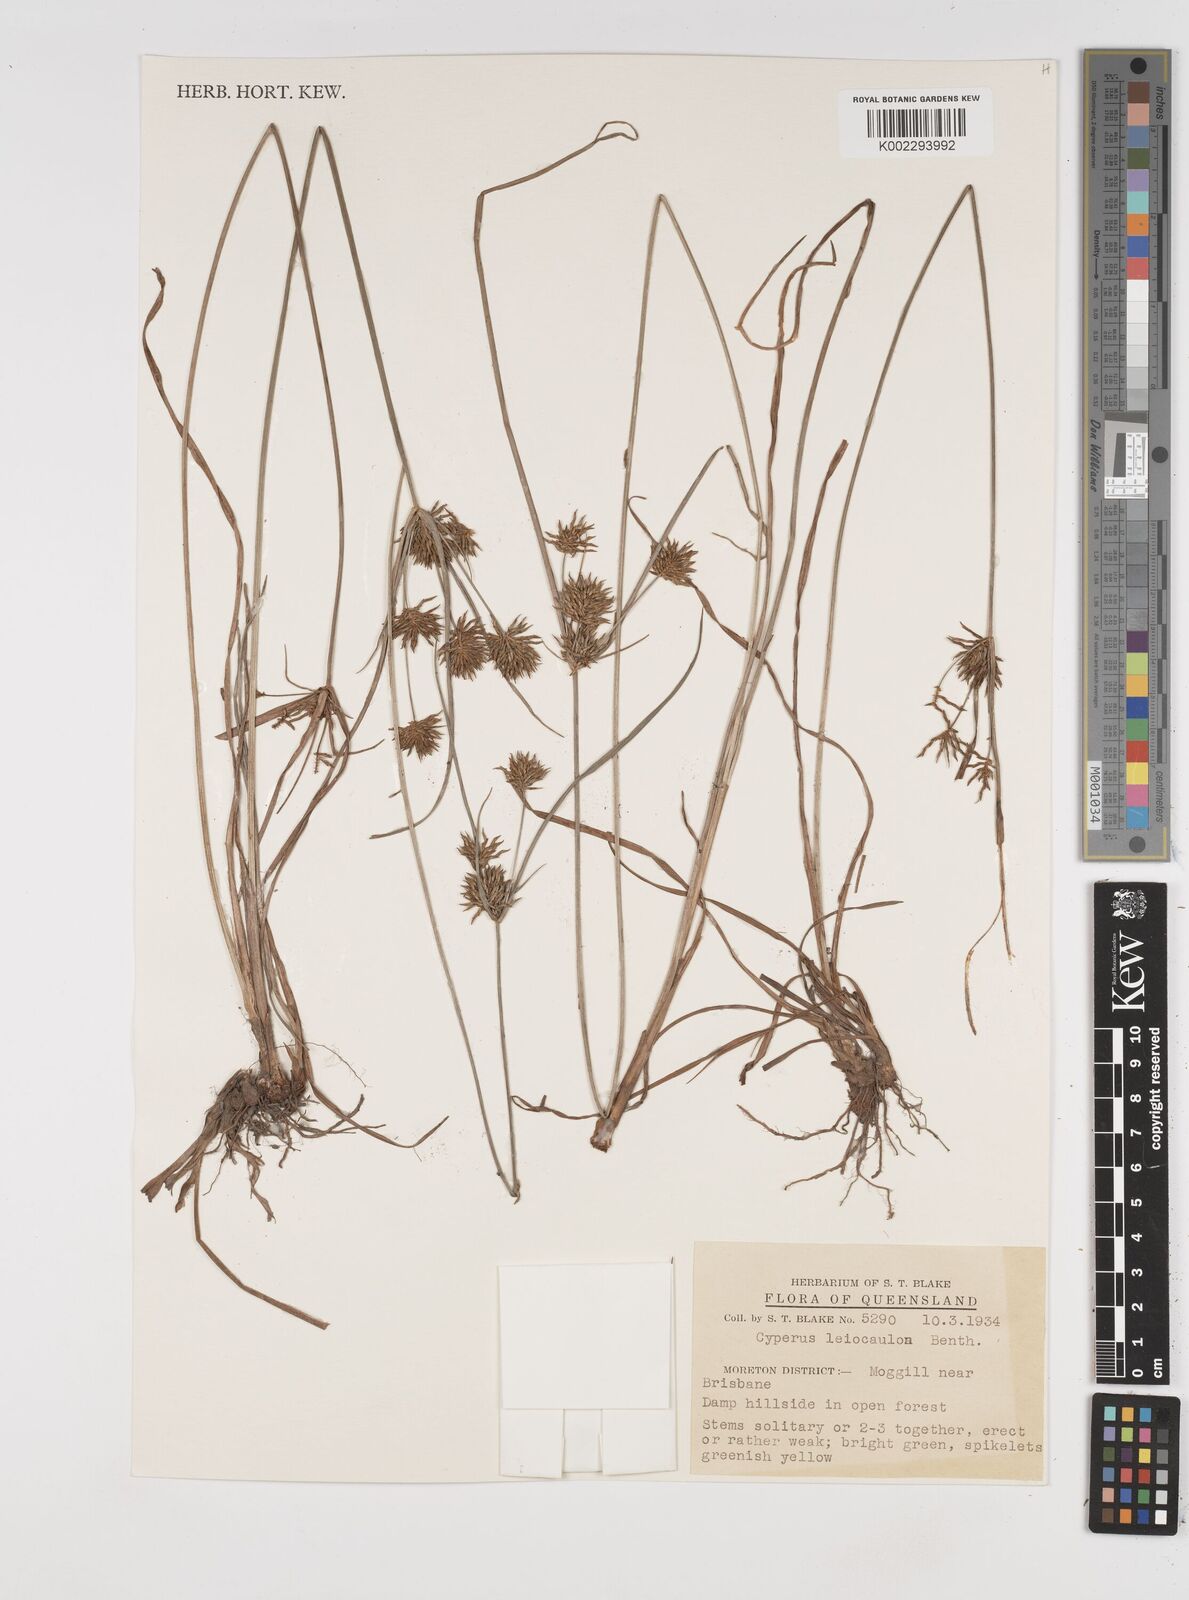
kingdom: Plantae
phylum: Tracheophyta
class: Liliopsida
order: Poales
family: Cyperaceae
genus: Cyperus
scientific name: Cyperus leiocaulon
